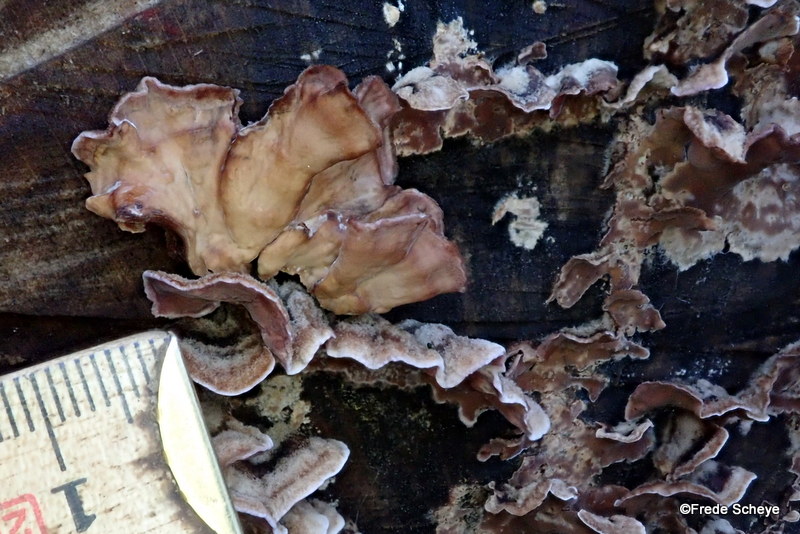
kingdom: Fungi
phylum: Basidiomycota
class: Agaricomycetes
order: Agaricales
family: Cyphellaceae
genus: Chondrostereum
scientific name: Chondrostereum purpureum
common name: purpurlædersvamp
